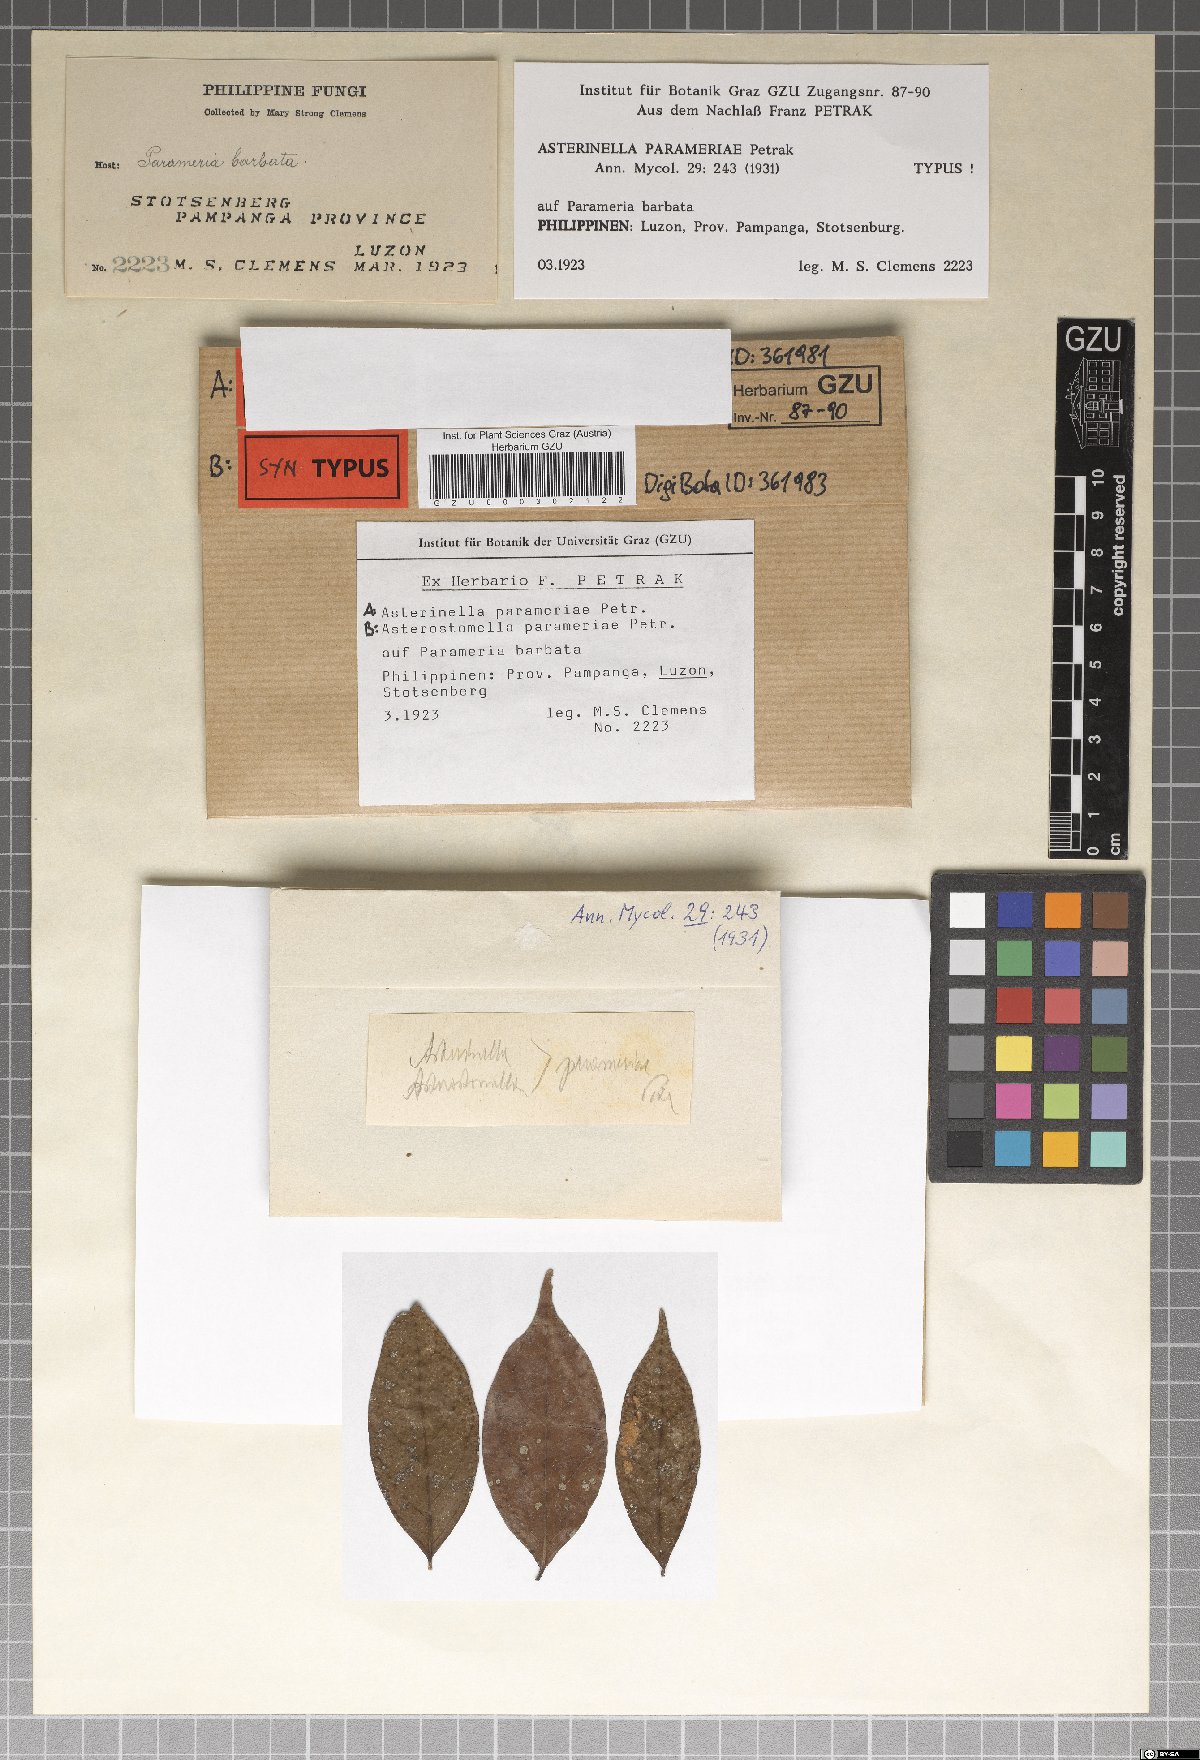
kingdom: Fungi
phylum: Ascomycota
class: Dothideomycetes
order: Asterinales
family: Asterinaceae
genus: Asterostomella
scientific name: Asterostomella parameriae
